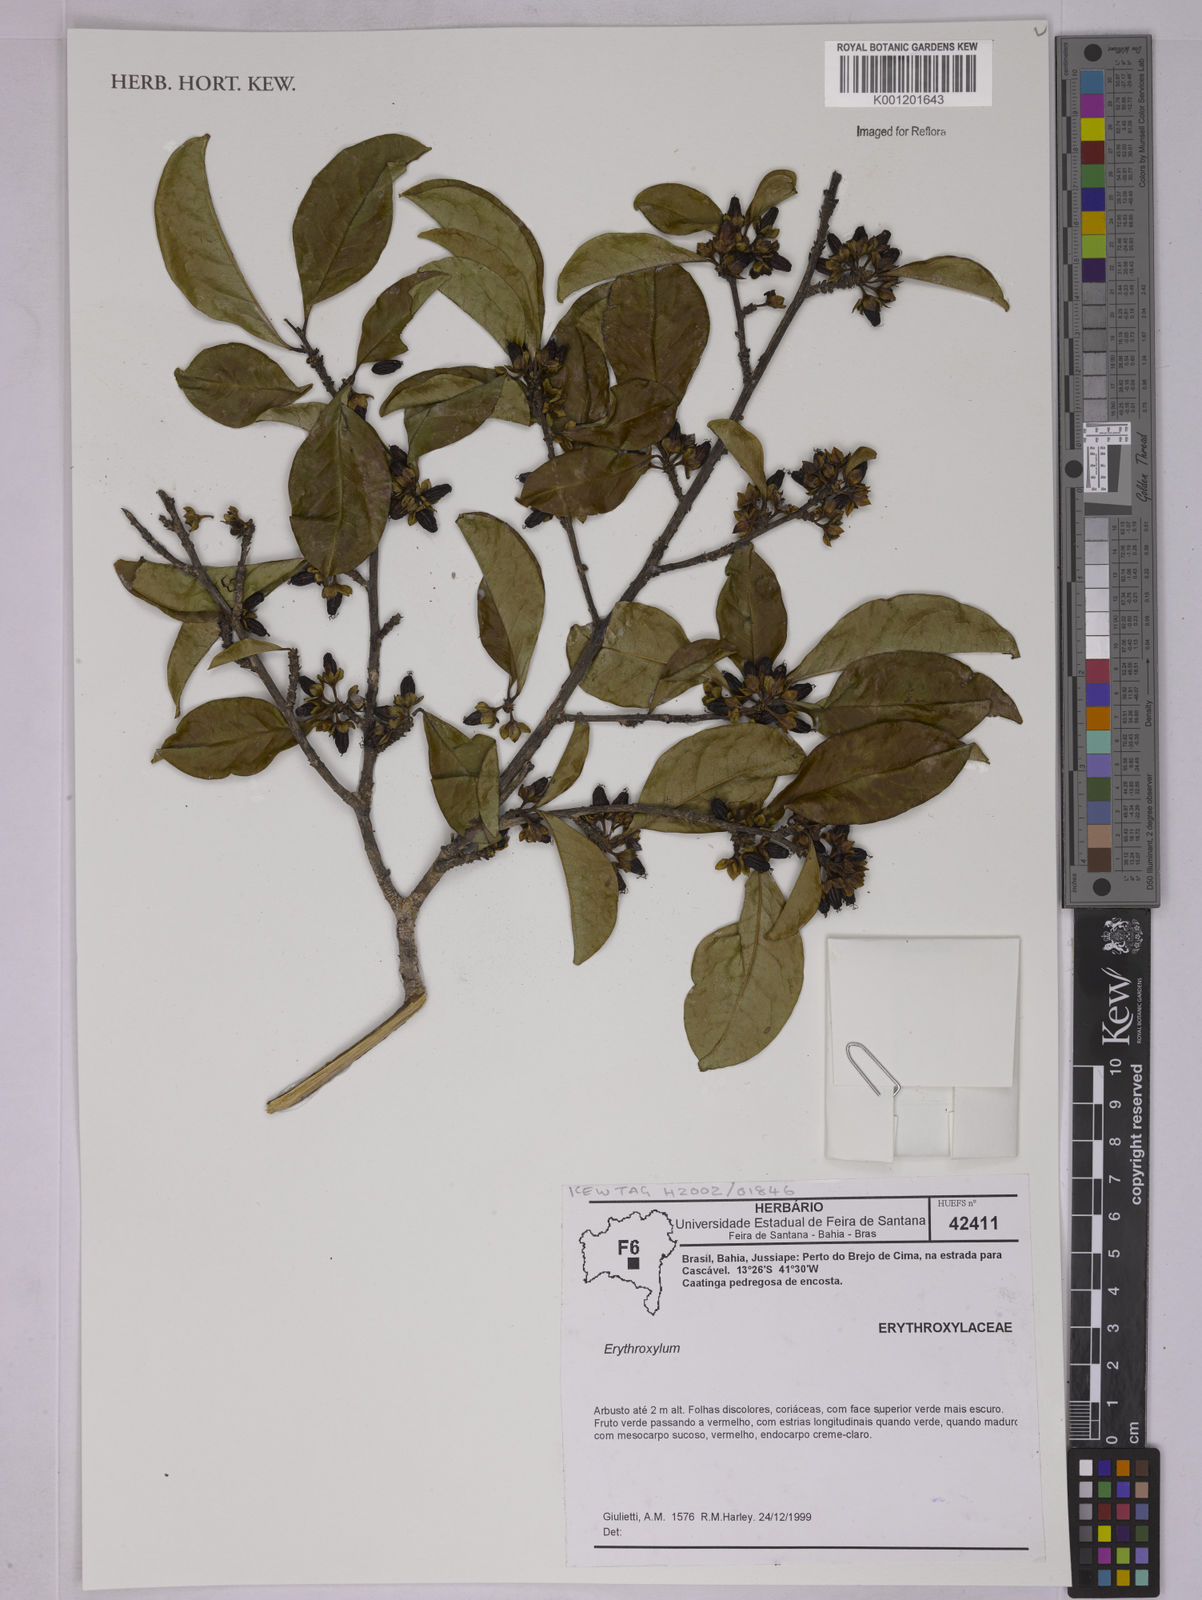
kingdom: Plantae
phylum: Tracheophyta
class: Magnoliopsida
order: Malpighiales
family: Erythroxylaceae
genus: Erythroxylum
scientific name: Erythroxylum
